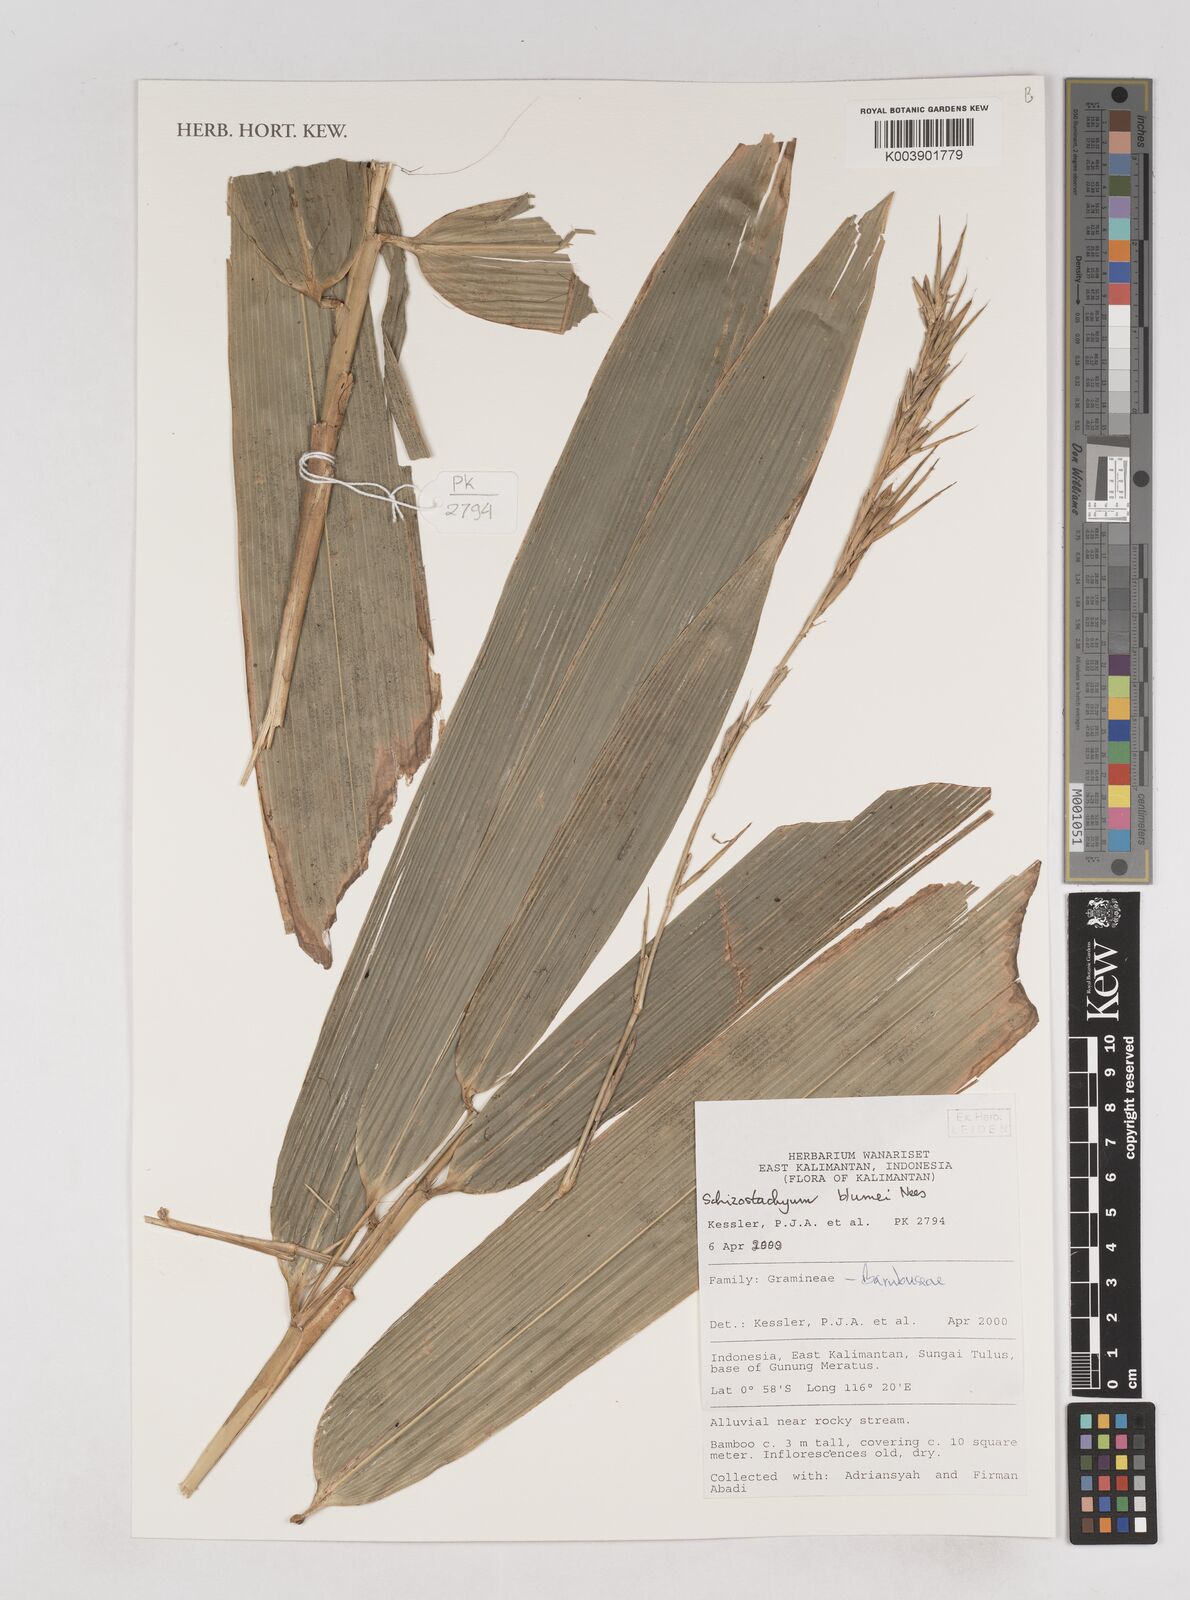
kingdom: Plantae
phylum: Tracheophyta
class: Liliopsida
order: Poales
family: Poaceae
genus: Schizostachyum
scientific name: Schizostachyum blumei
